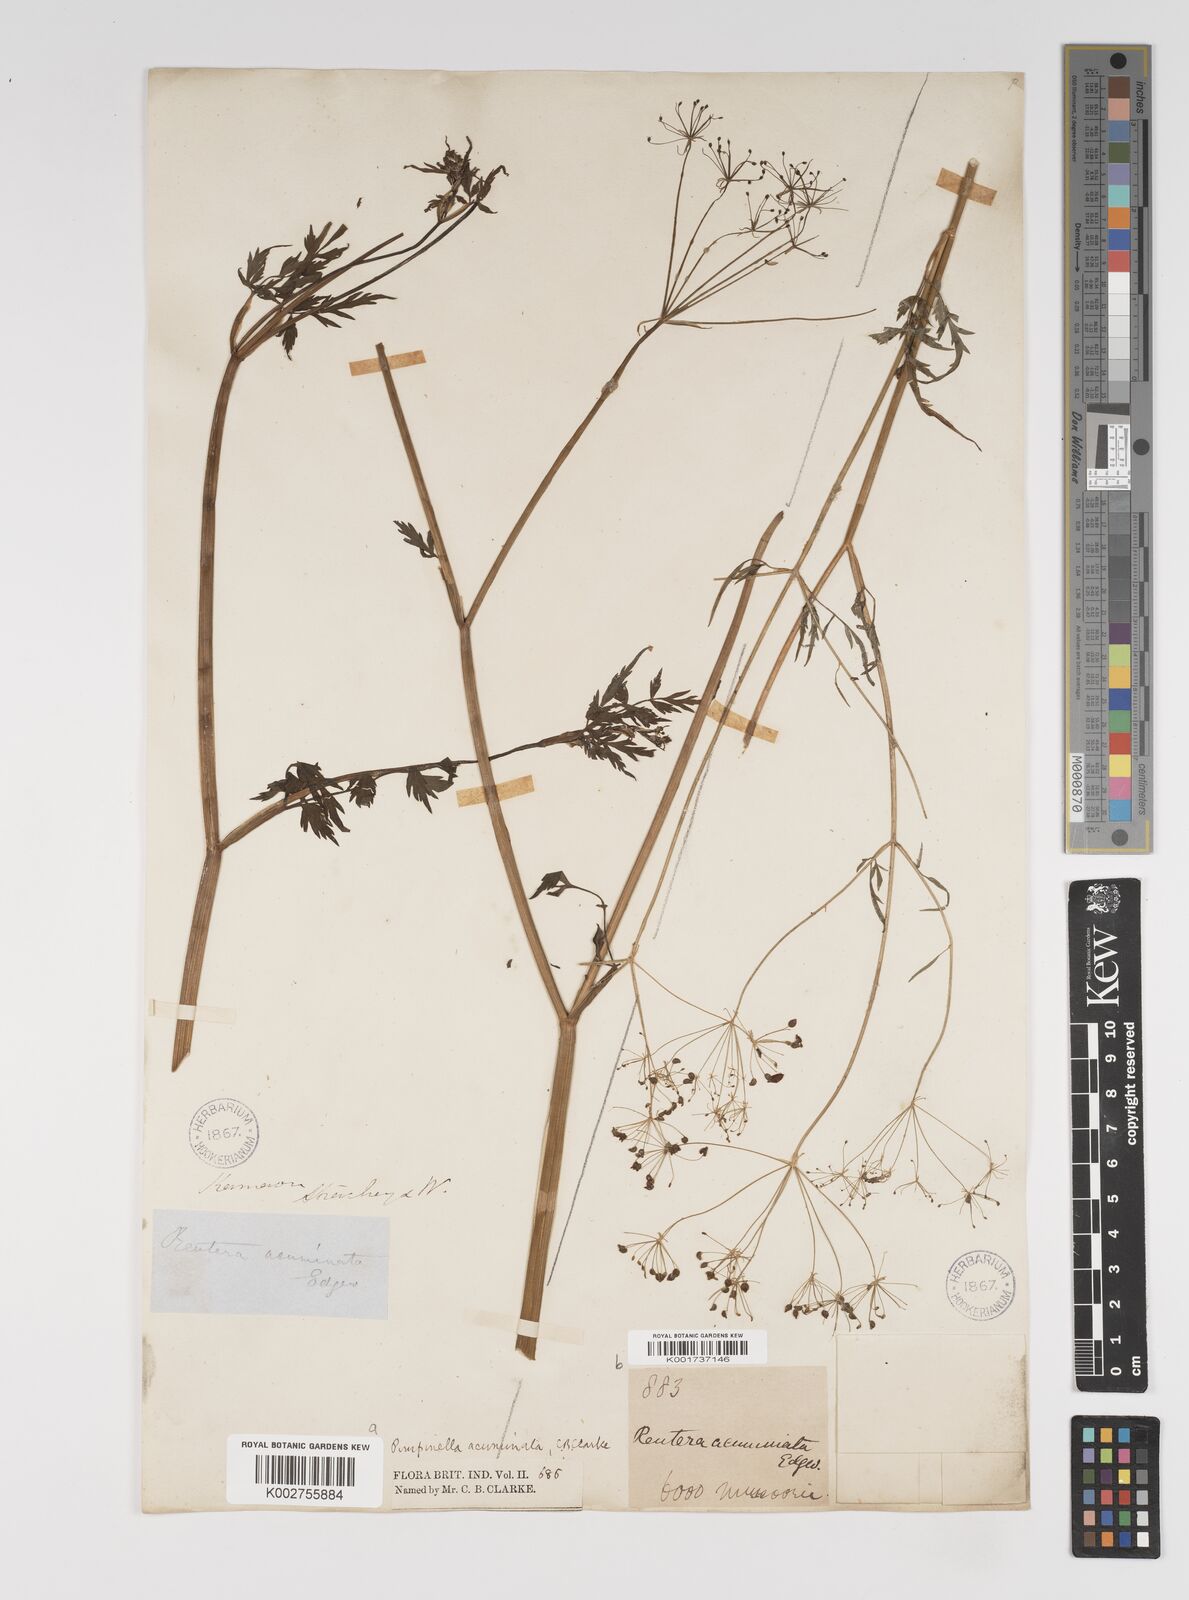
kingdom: Plantae
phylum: Tracheophyta
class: Magnoliopsida
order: Apiales
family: Apiaceae
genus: Pimpinella
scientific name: Pimpinella acuminata
